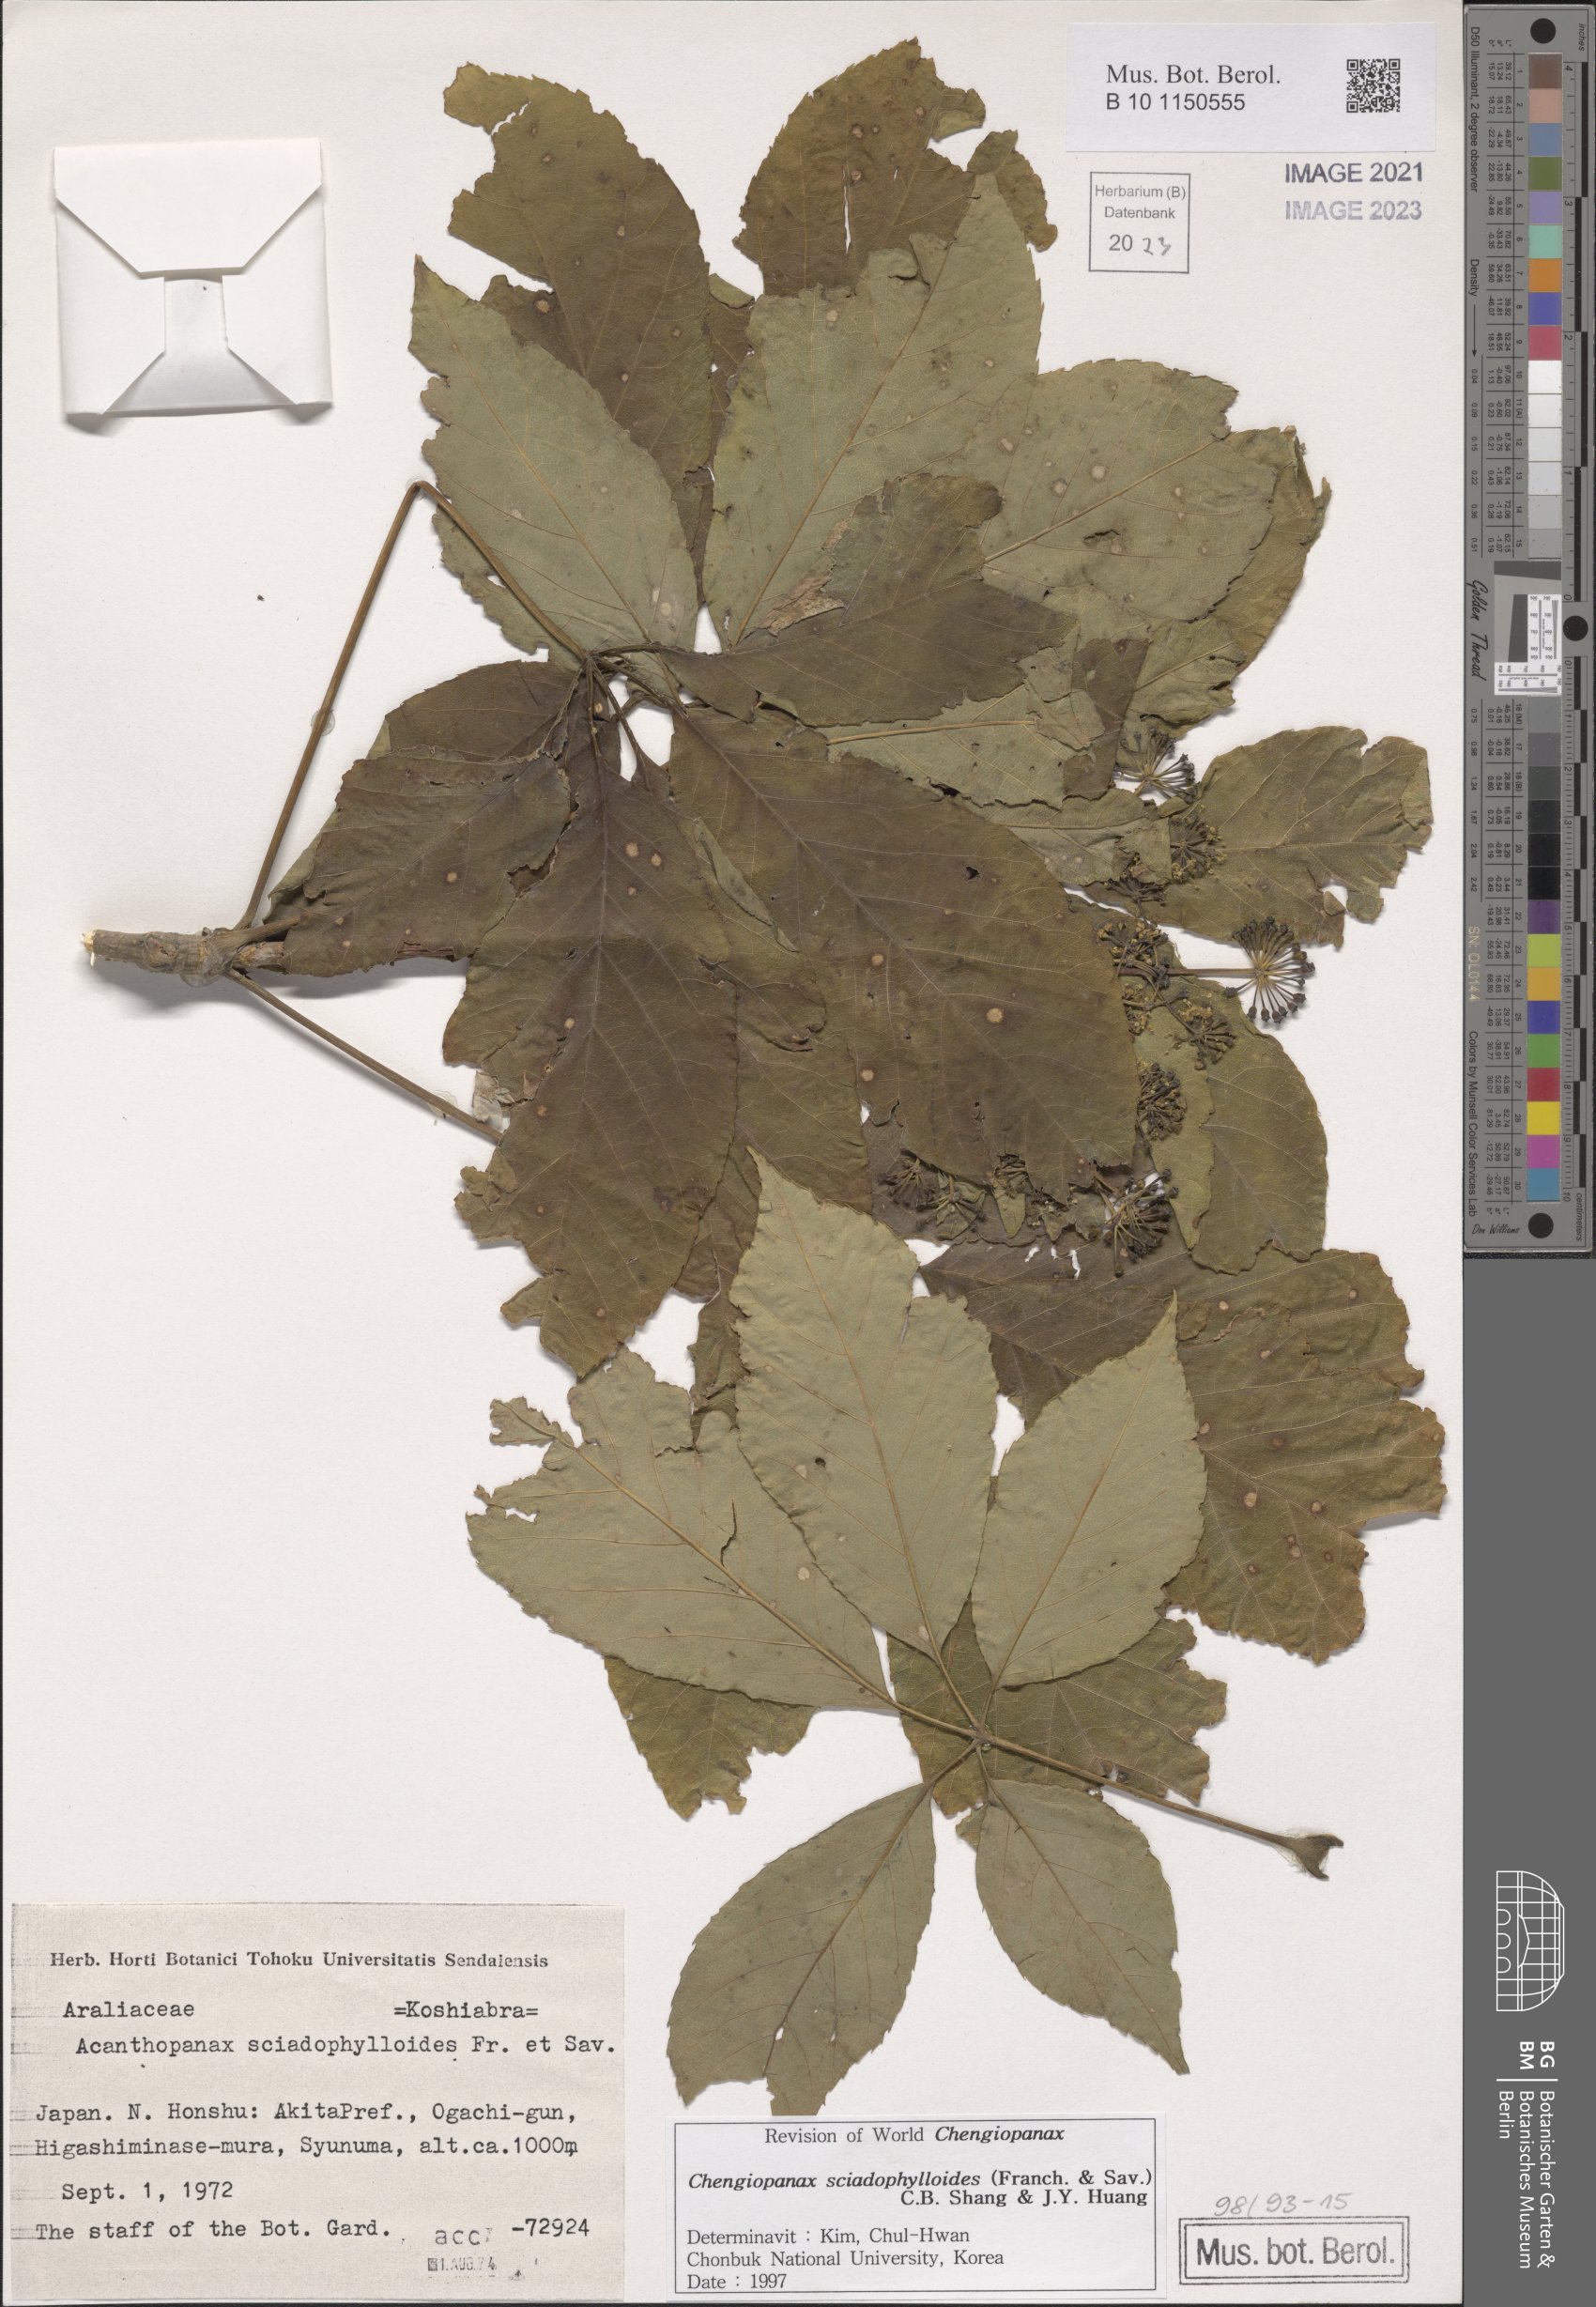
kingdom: Plantae
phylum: Tracheophyta
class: Magnoliopsida
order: Apiales
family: Araliaceae
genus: Chengiopanax
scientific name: Chengiopanax sciadophylloides
